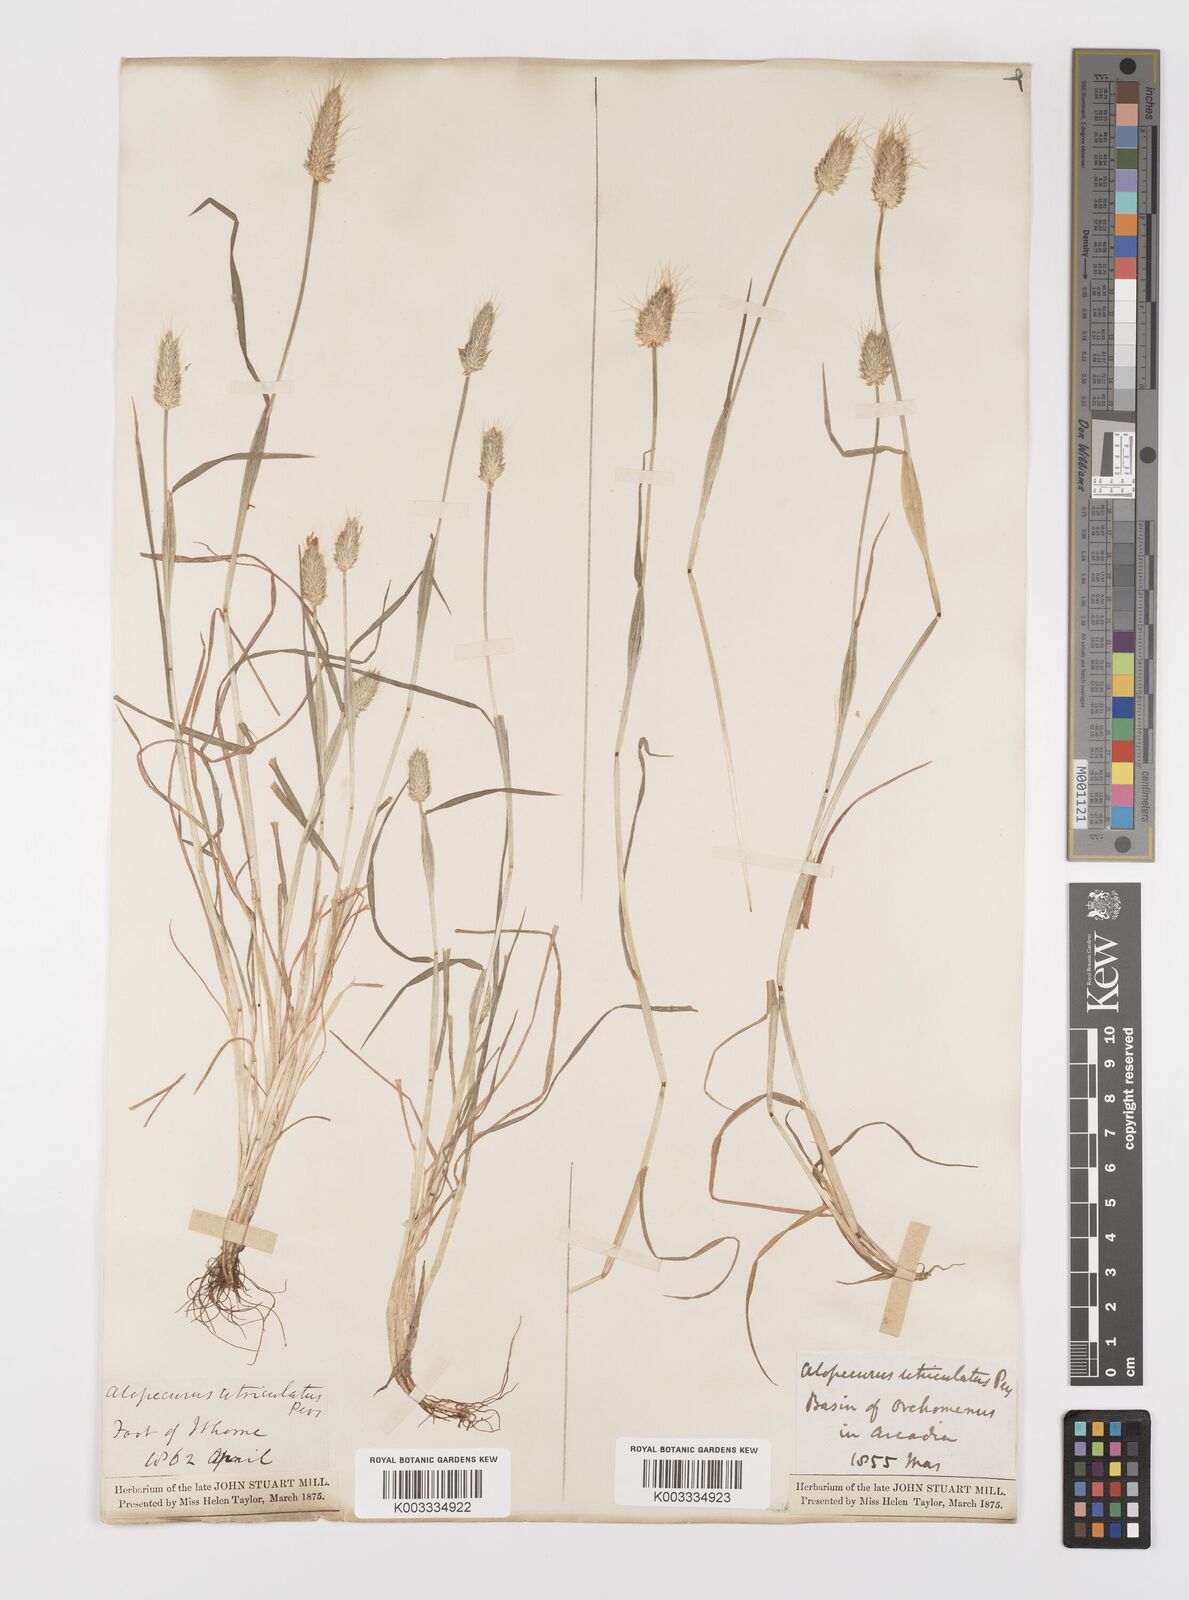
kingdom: Plantae
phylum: Tracheophyta
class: Liliopsida
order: Poales
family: Poaceae
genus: Alopecurus
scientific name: Alopecurus rendlei
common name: Rendle's meadow foxtail
